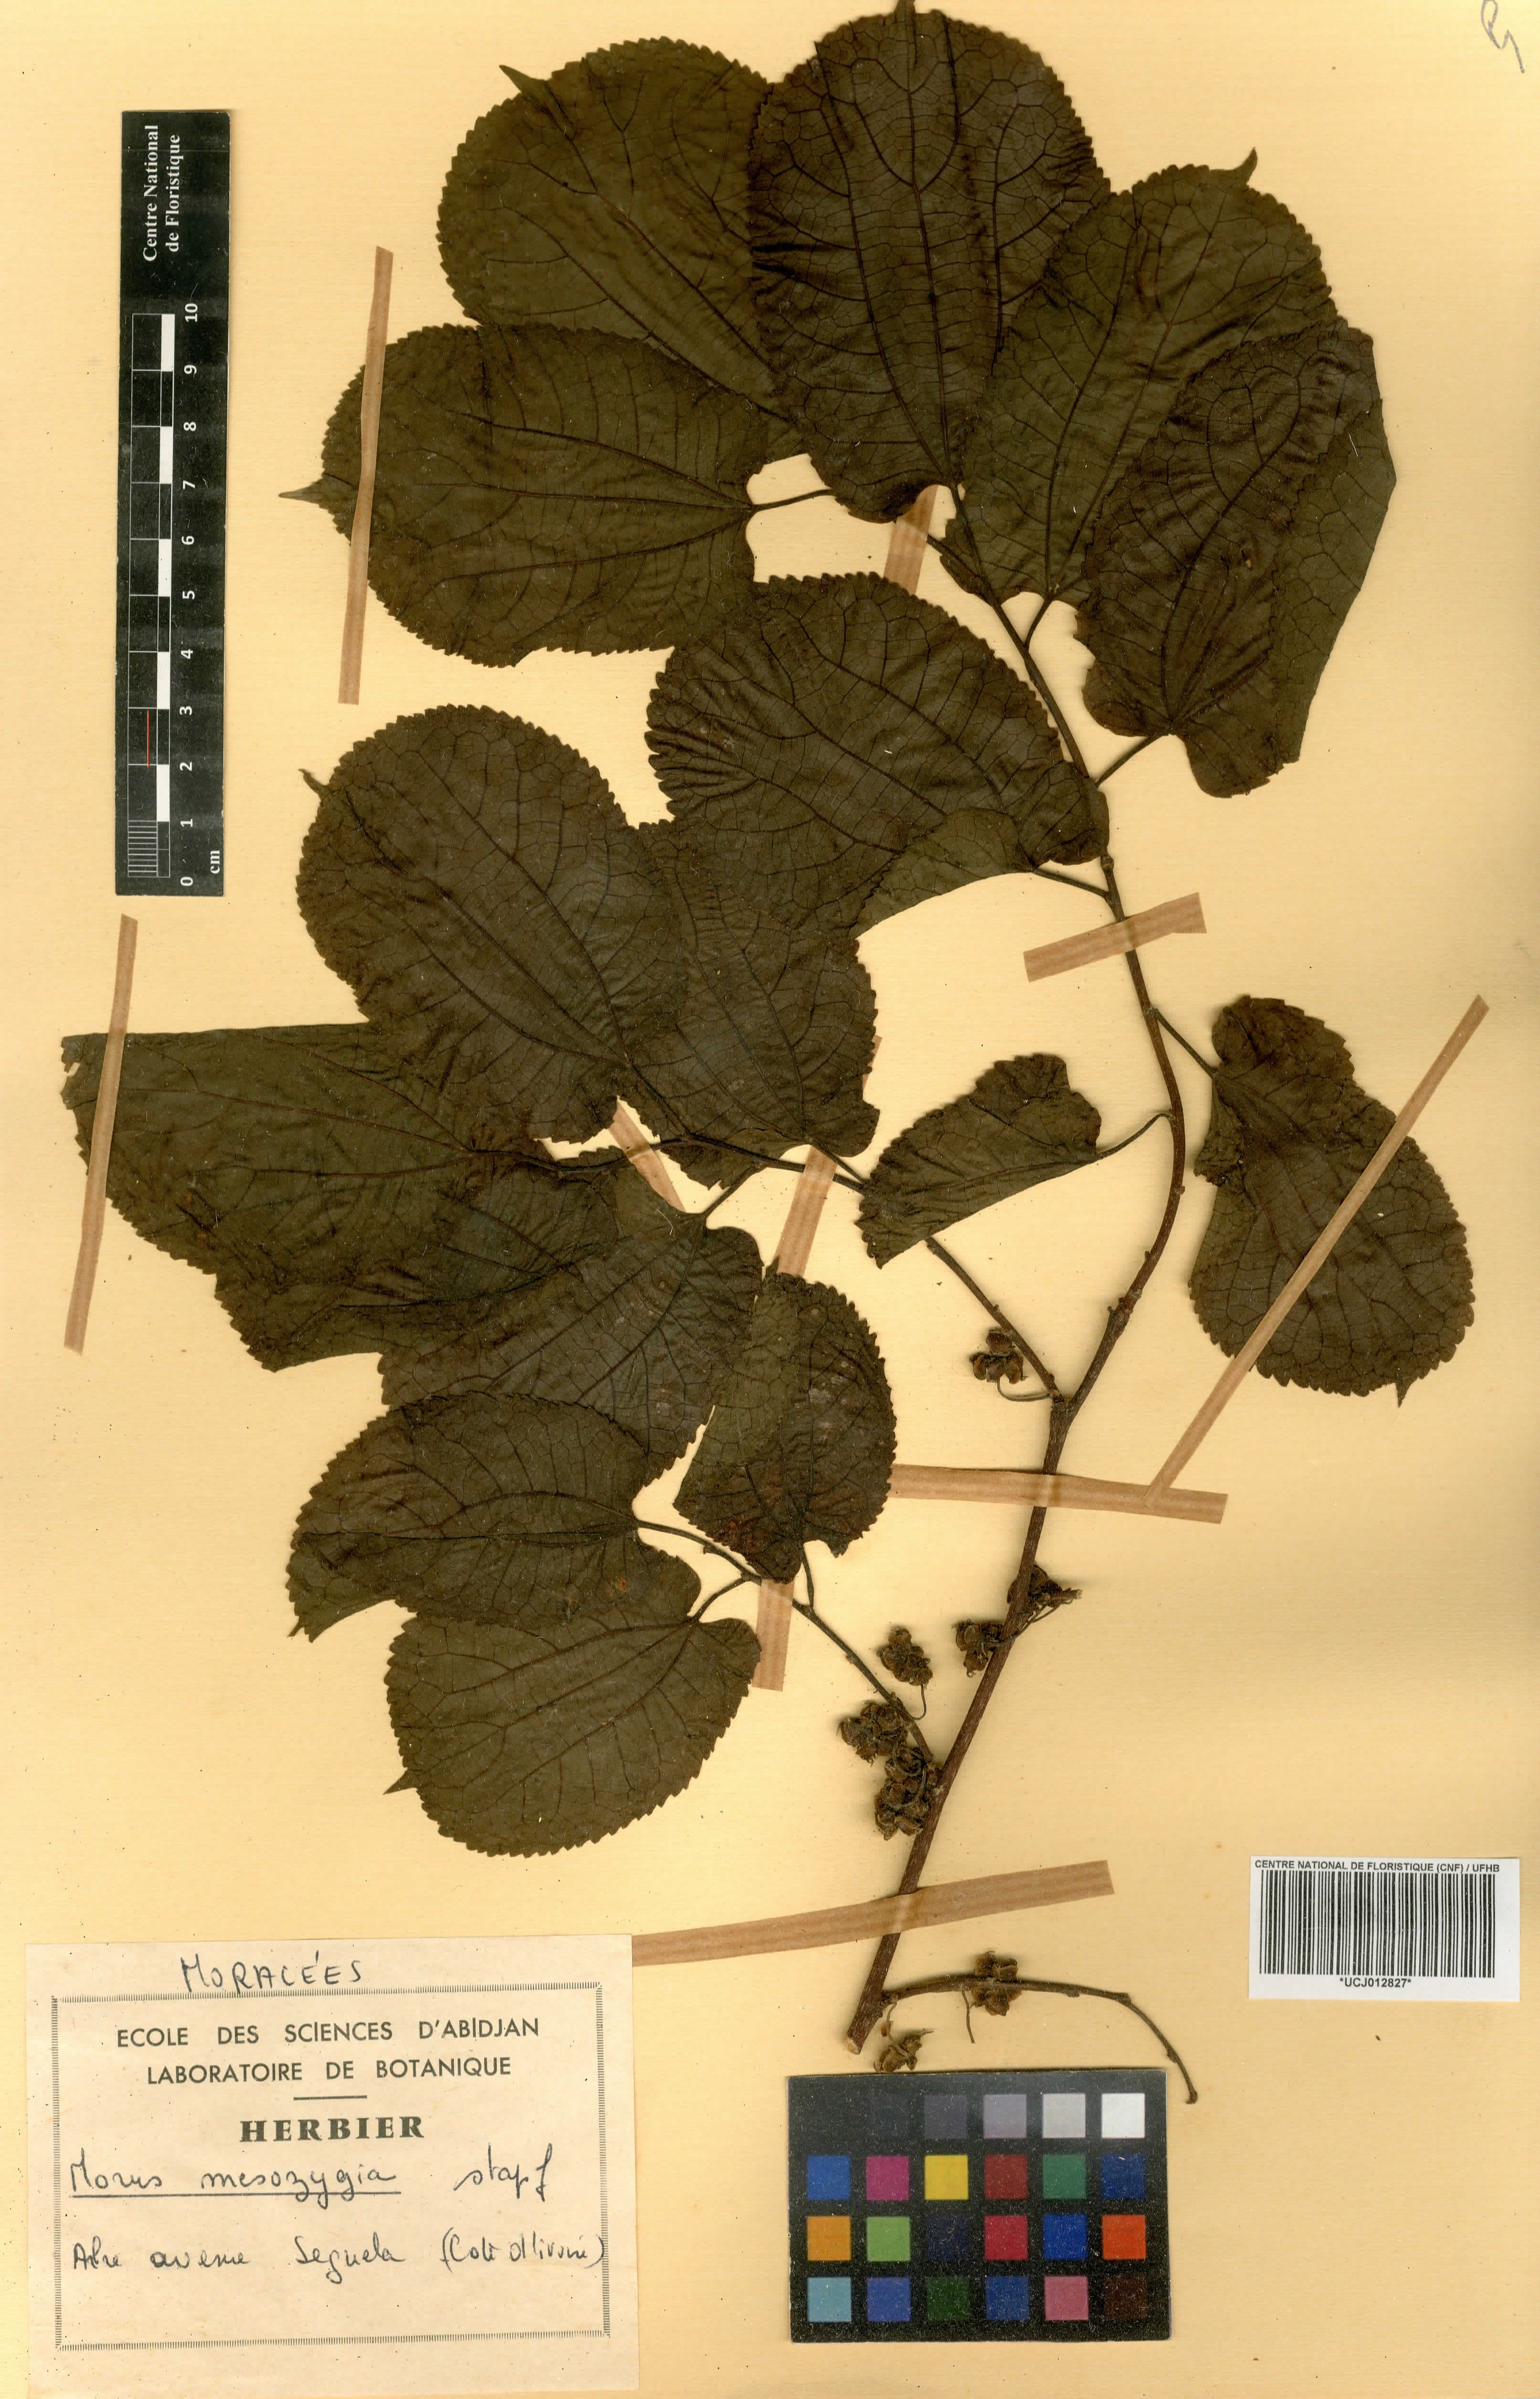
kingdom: Plantae
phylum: Tracheophyta
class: Magnoliopsida
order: Rosales
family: Moraceae
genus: Afromorus
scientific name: Afromorus mesozygia
